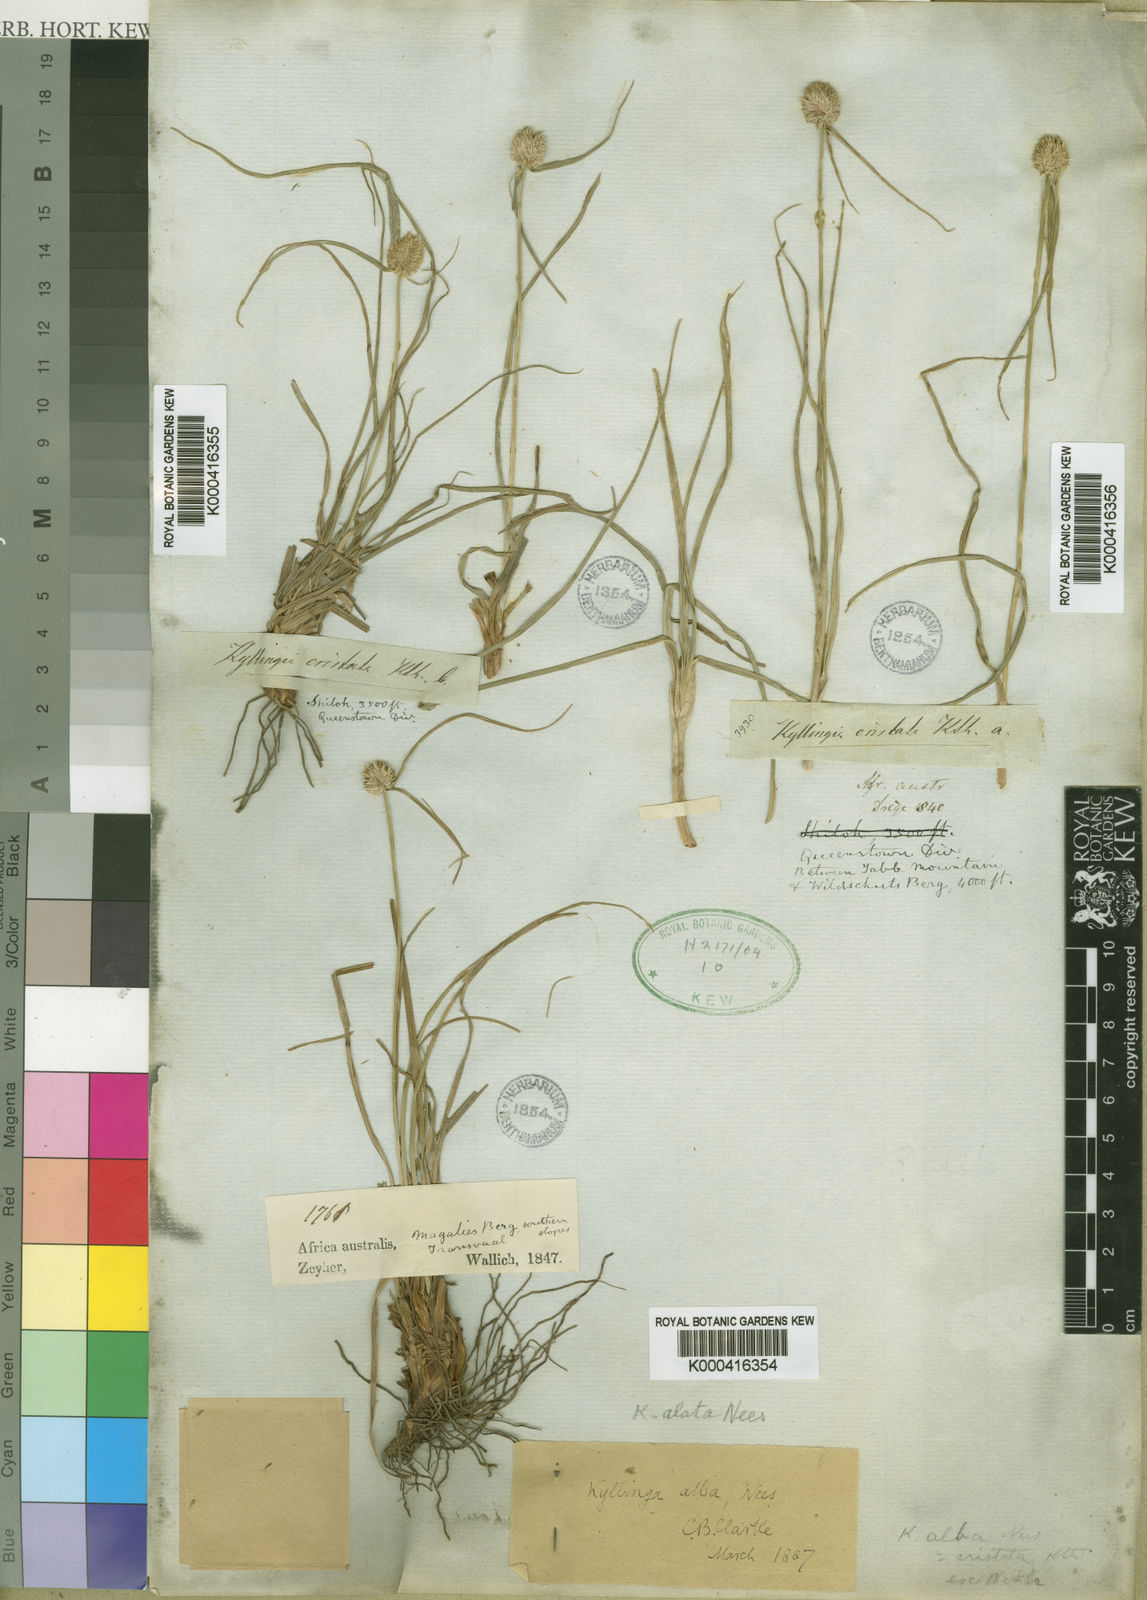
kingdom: Plantae
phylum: Tracheophyta
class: Liliopsida
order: Poales
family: Cyperaceae
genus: Cyperus
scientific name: Cyperus alatus
